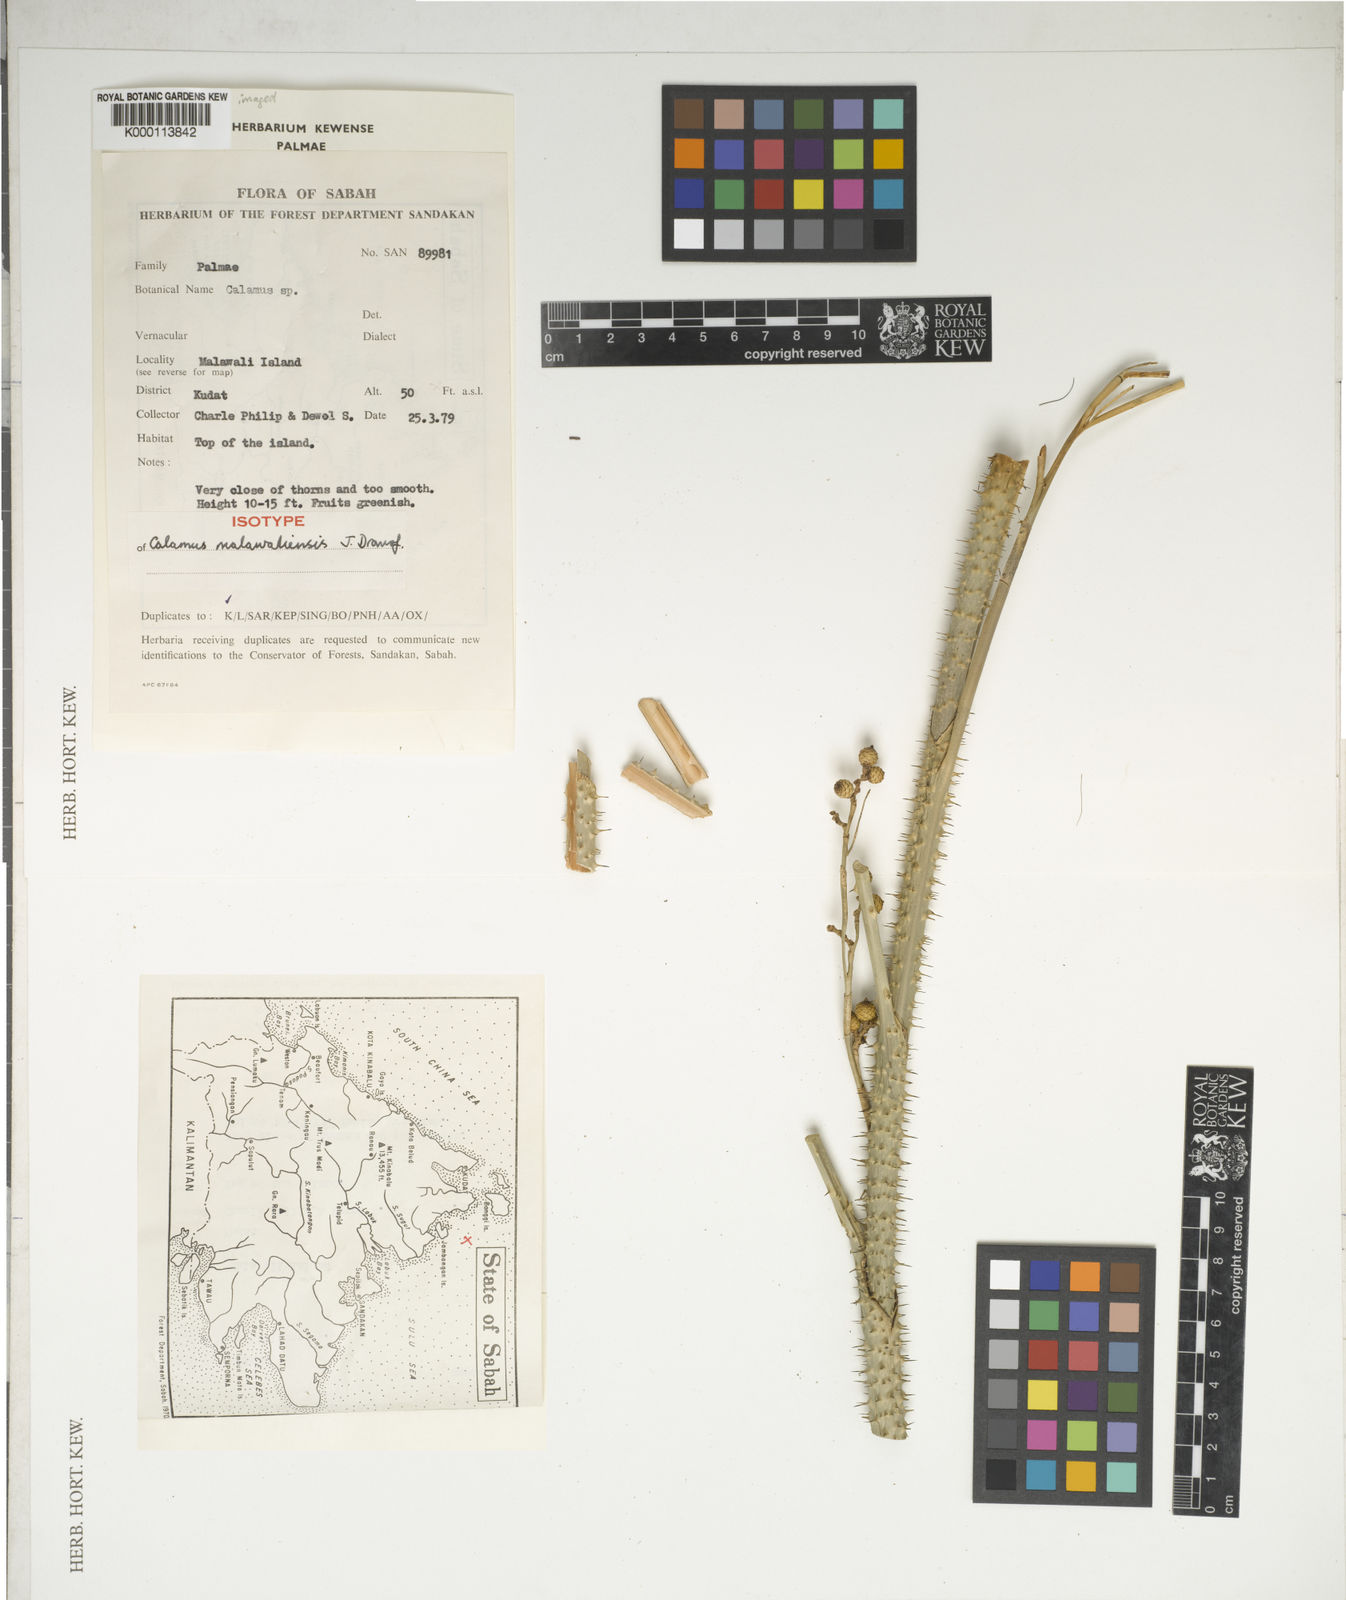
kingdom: Plantae
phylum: Tracheophyta
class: Liliopsida
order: Arecales
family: Arecaceae
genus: Calamus
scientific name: Calamus malawaliensis
